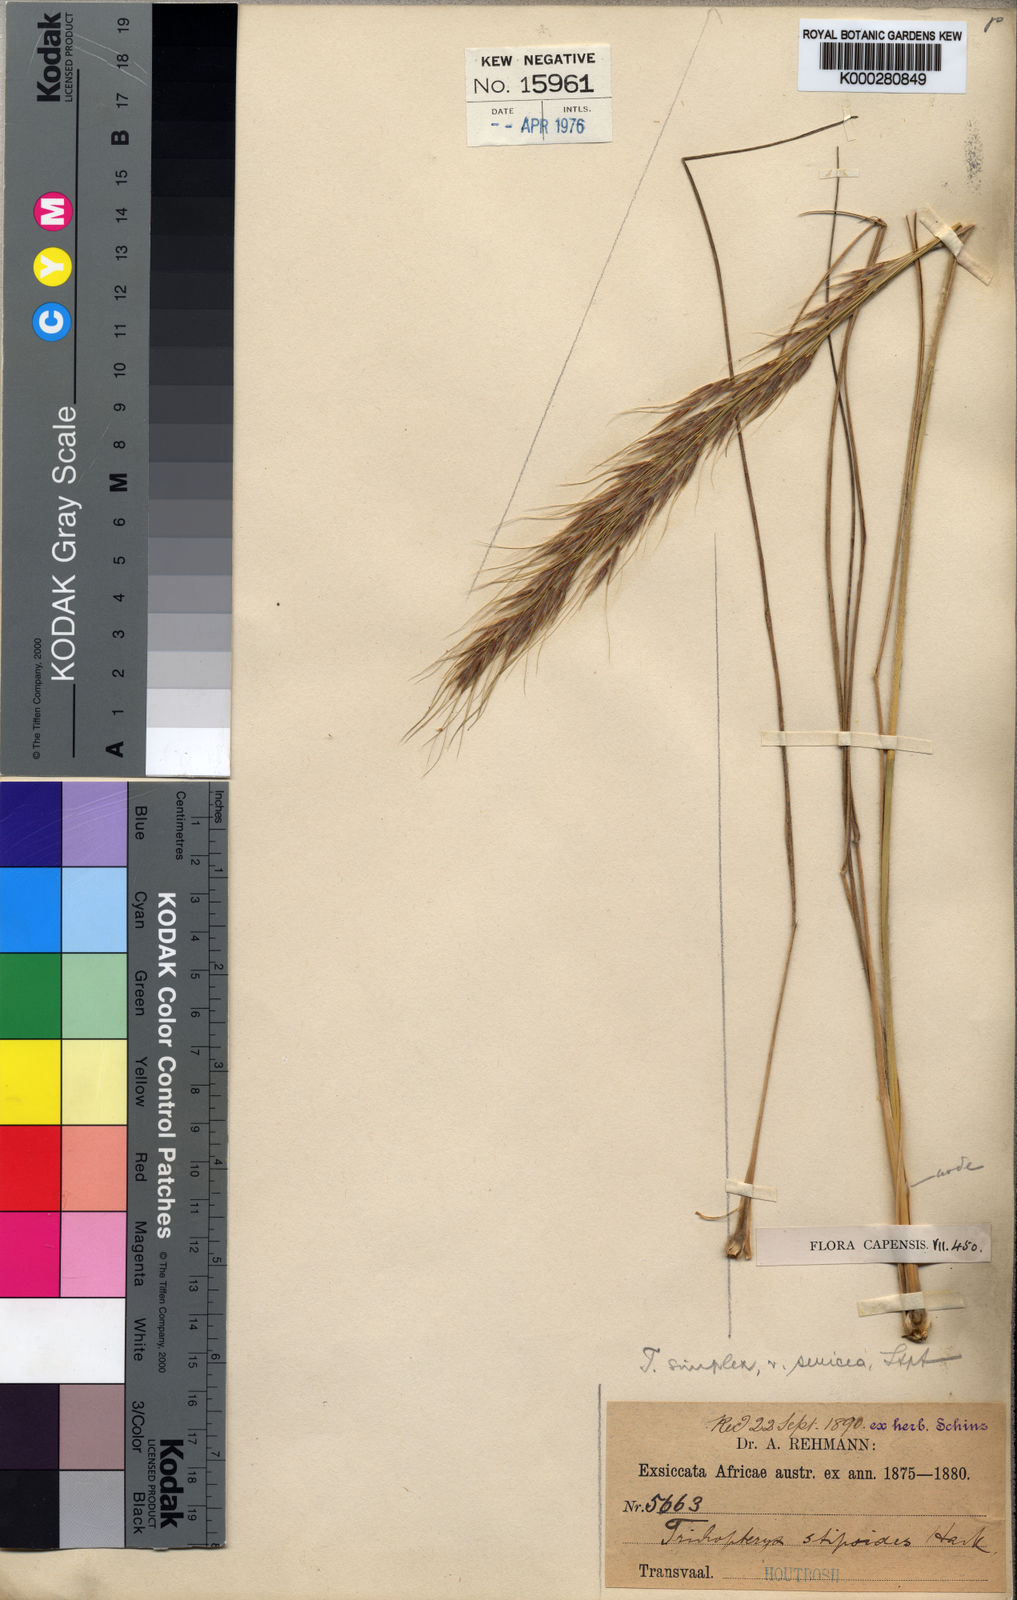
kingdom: Plantae
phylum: Tracheophyta
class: Liliopsida
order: Poales
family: Poaceae
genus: Loudetia
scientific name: Loudetia simplex
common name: Common russet grass
